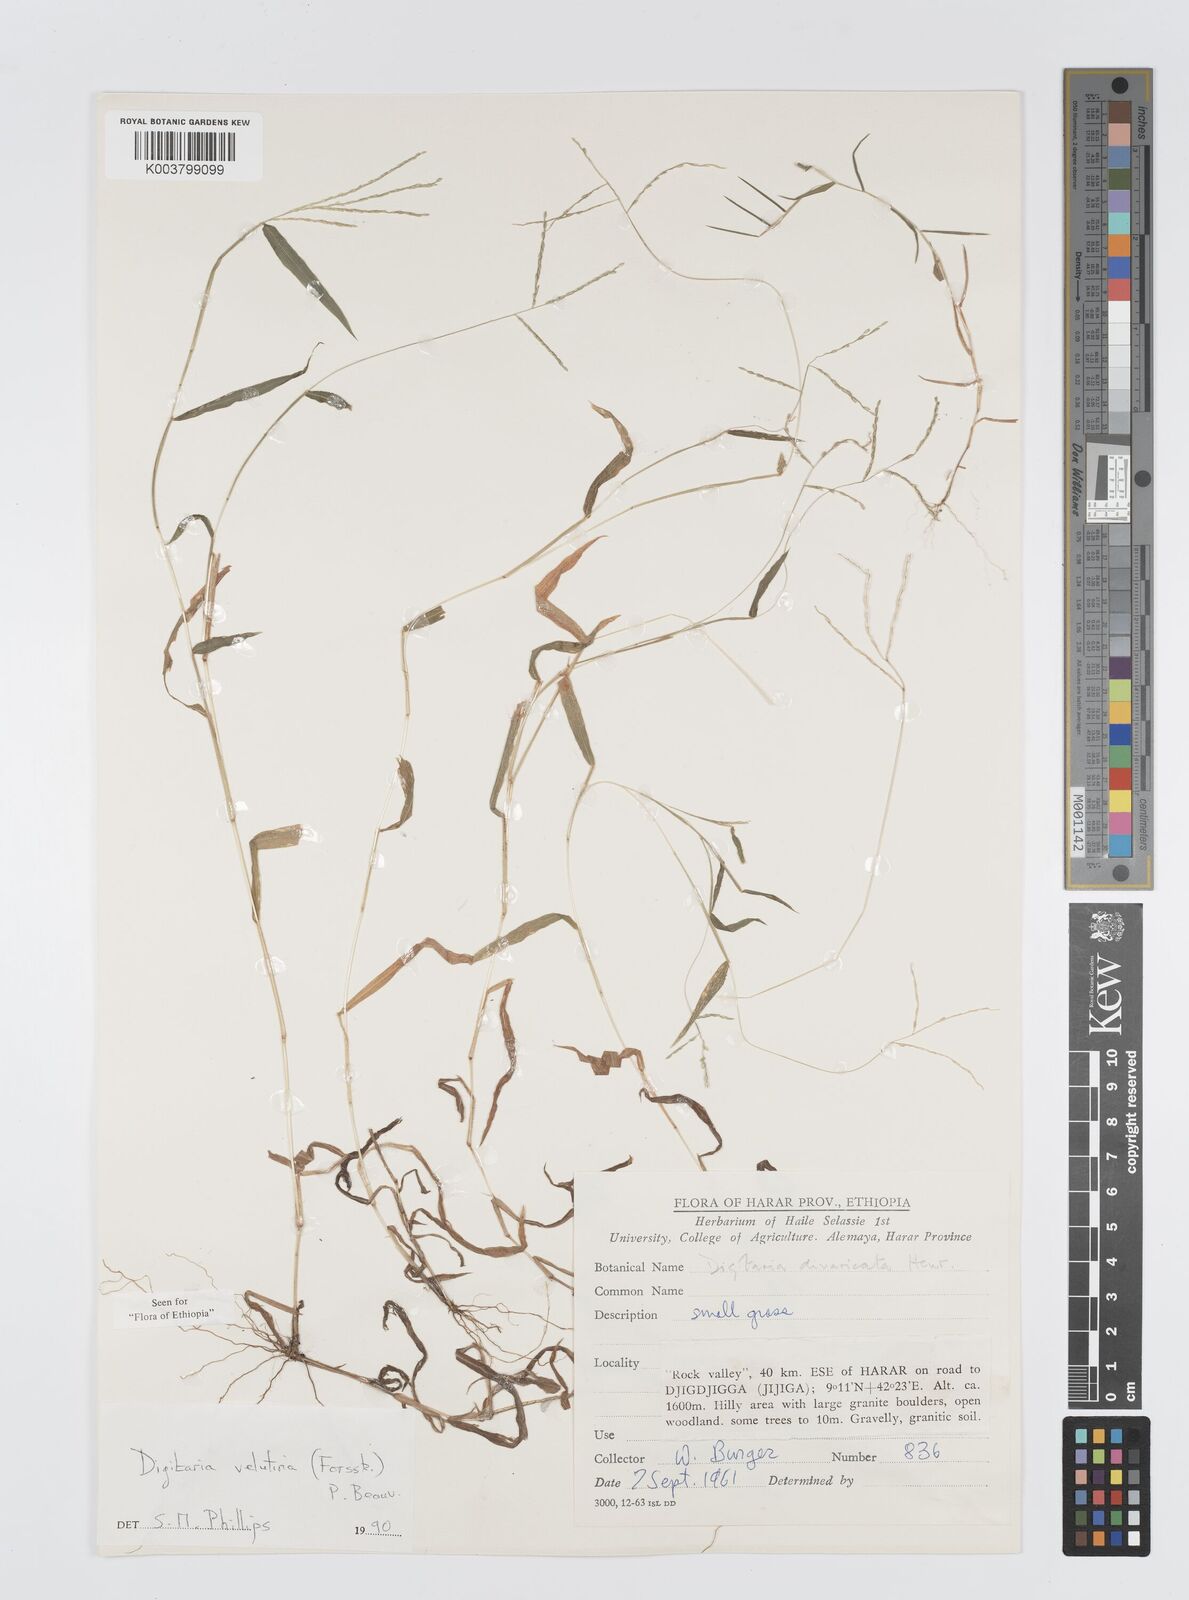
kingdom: Plantae
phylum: Tracheophyta
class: Liliopsida
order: Poales
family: Poaceae
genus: Digitaria
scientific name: Digitaria velutina
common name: Long-plume finger grass
